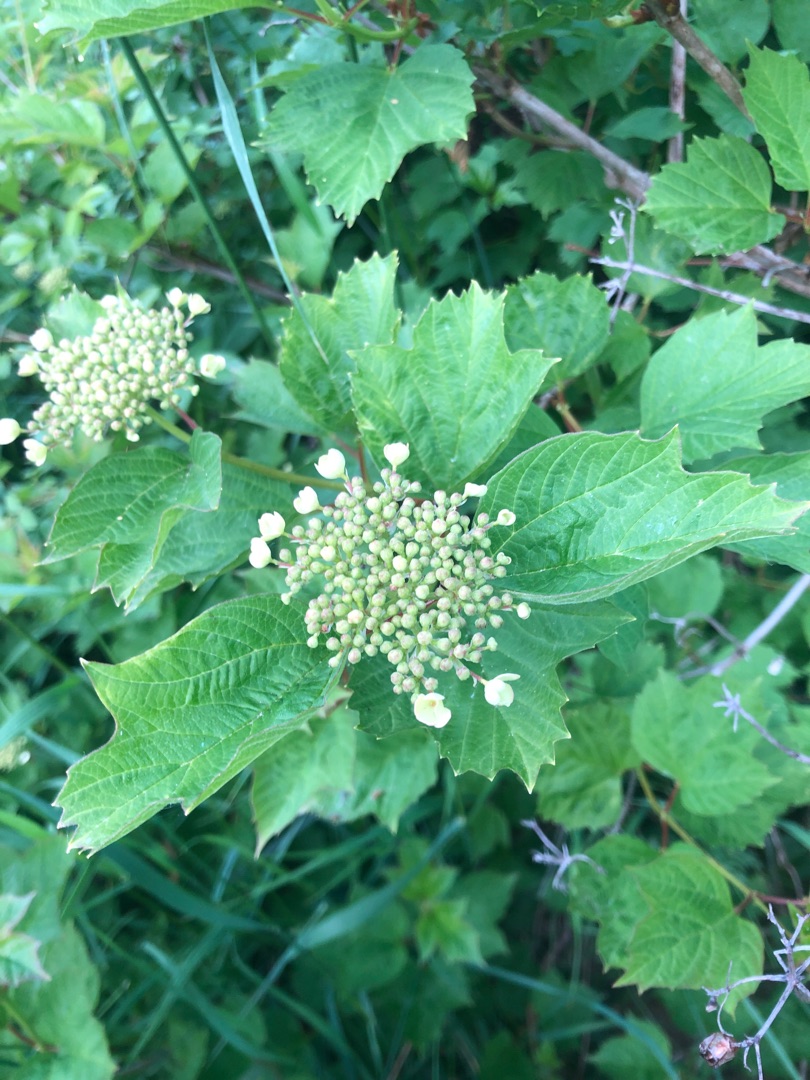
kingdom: Plantae
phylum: Tracheophyta
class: Magnoliopsida
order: Dipsacales
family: Viburnaceae
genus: Viburnum
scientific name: Viburnum opulus
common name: Kvalkved
